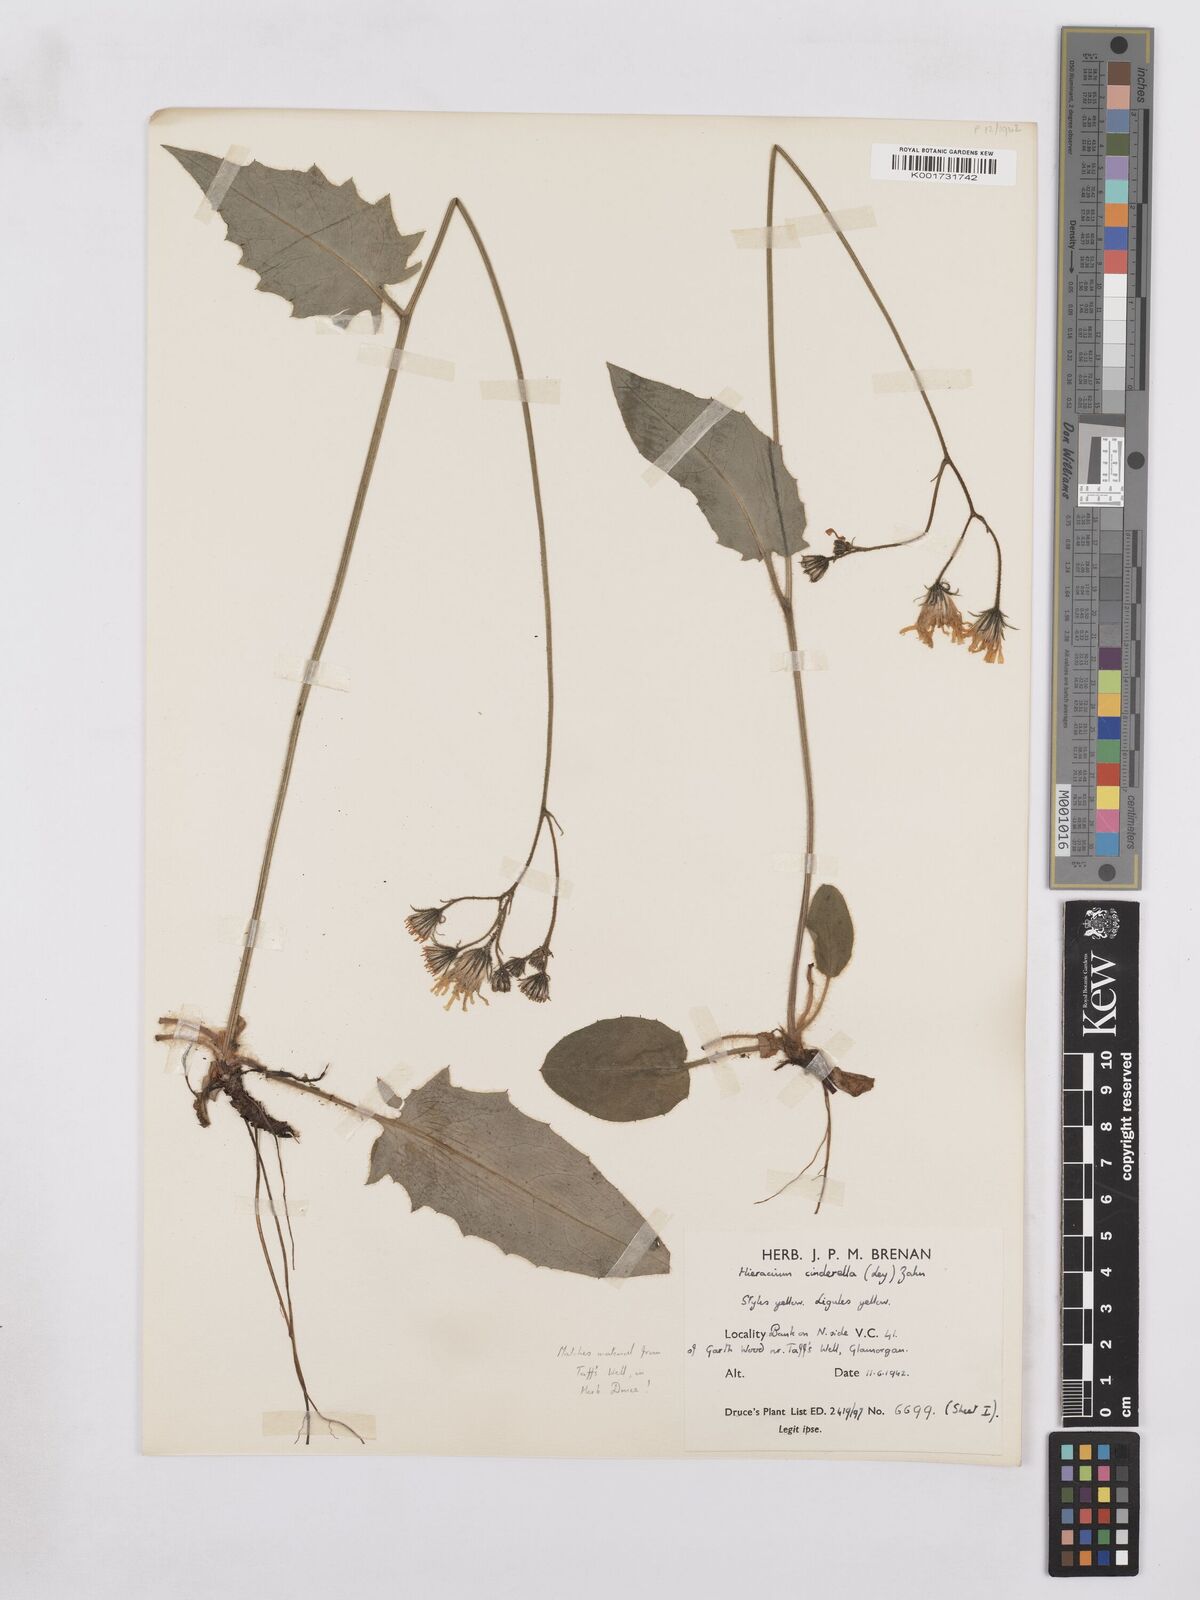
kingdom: Plantae
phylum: Tracheophyta
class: Magnoliopsida
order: Asterales
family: Asteraceae
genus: Hieracium
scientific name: Hieracium murorum
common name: Wall hawkweed
